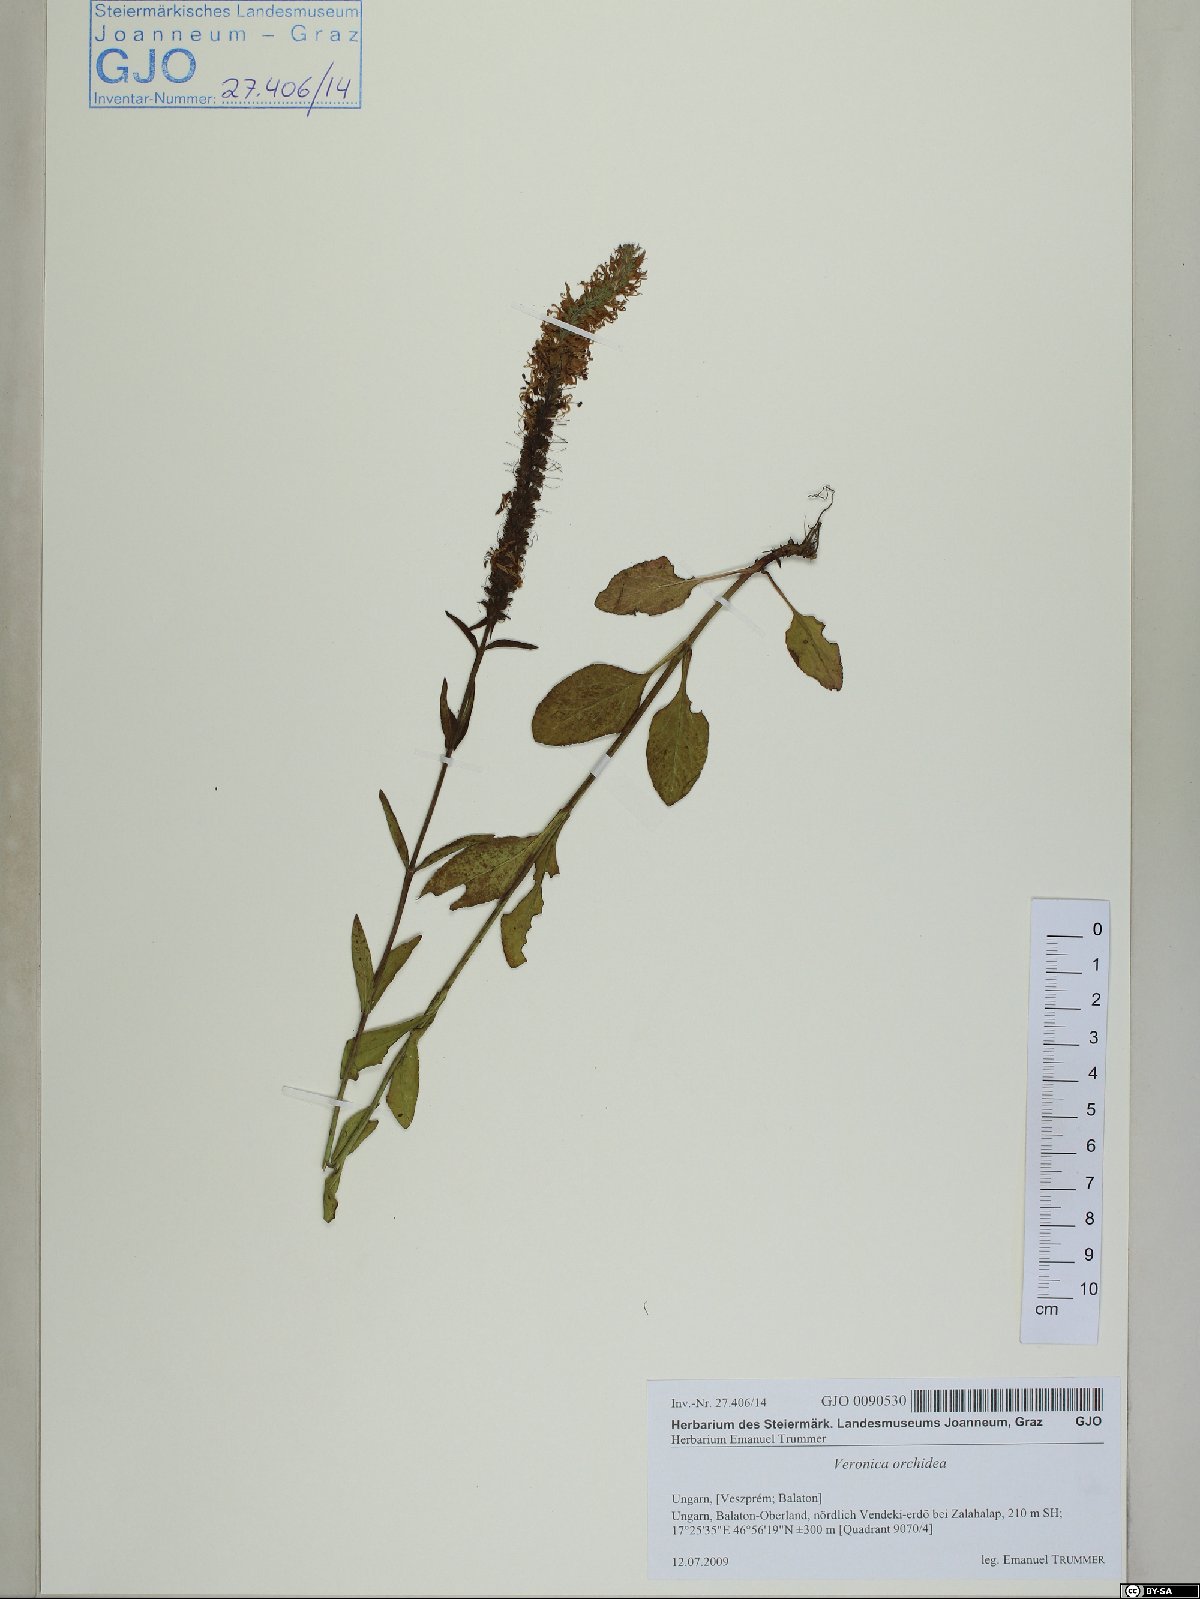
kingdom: Plantae
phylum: Tracheophyta
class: Magnoliopsida
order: Lamiales
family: Plantaginaceae
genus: Veronica
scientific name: Veronica orchidea
